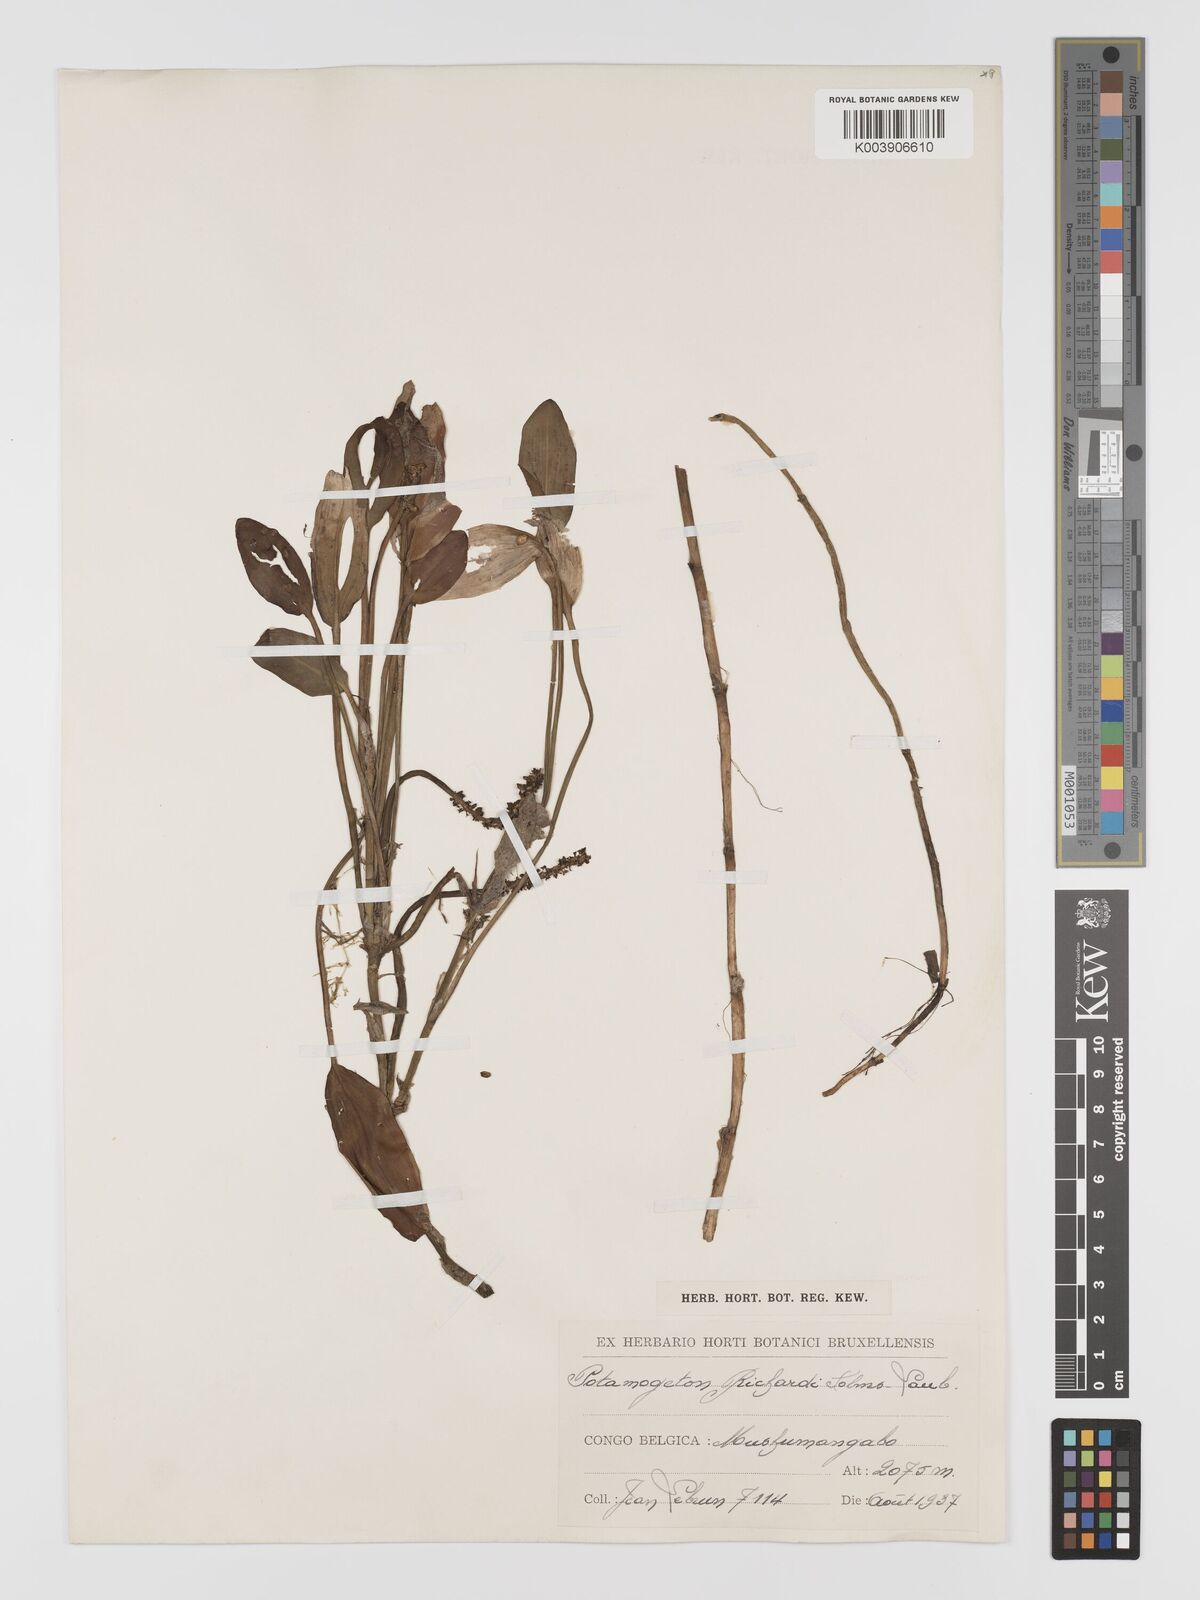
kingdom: Plantae
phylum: Tracheophyta
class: Liliopsida
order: Alismatales
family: Potamogetonaceae
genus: Potamogeton
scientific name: Potamogeton nodosus
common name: Loddon pondweed
